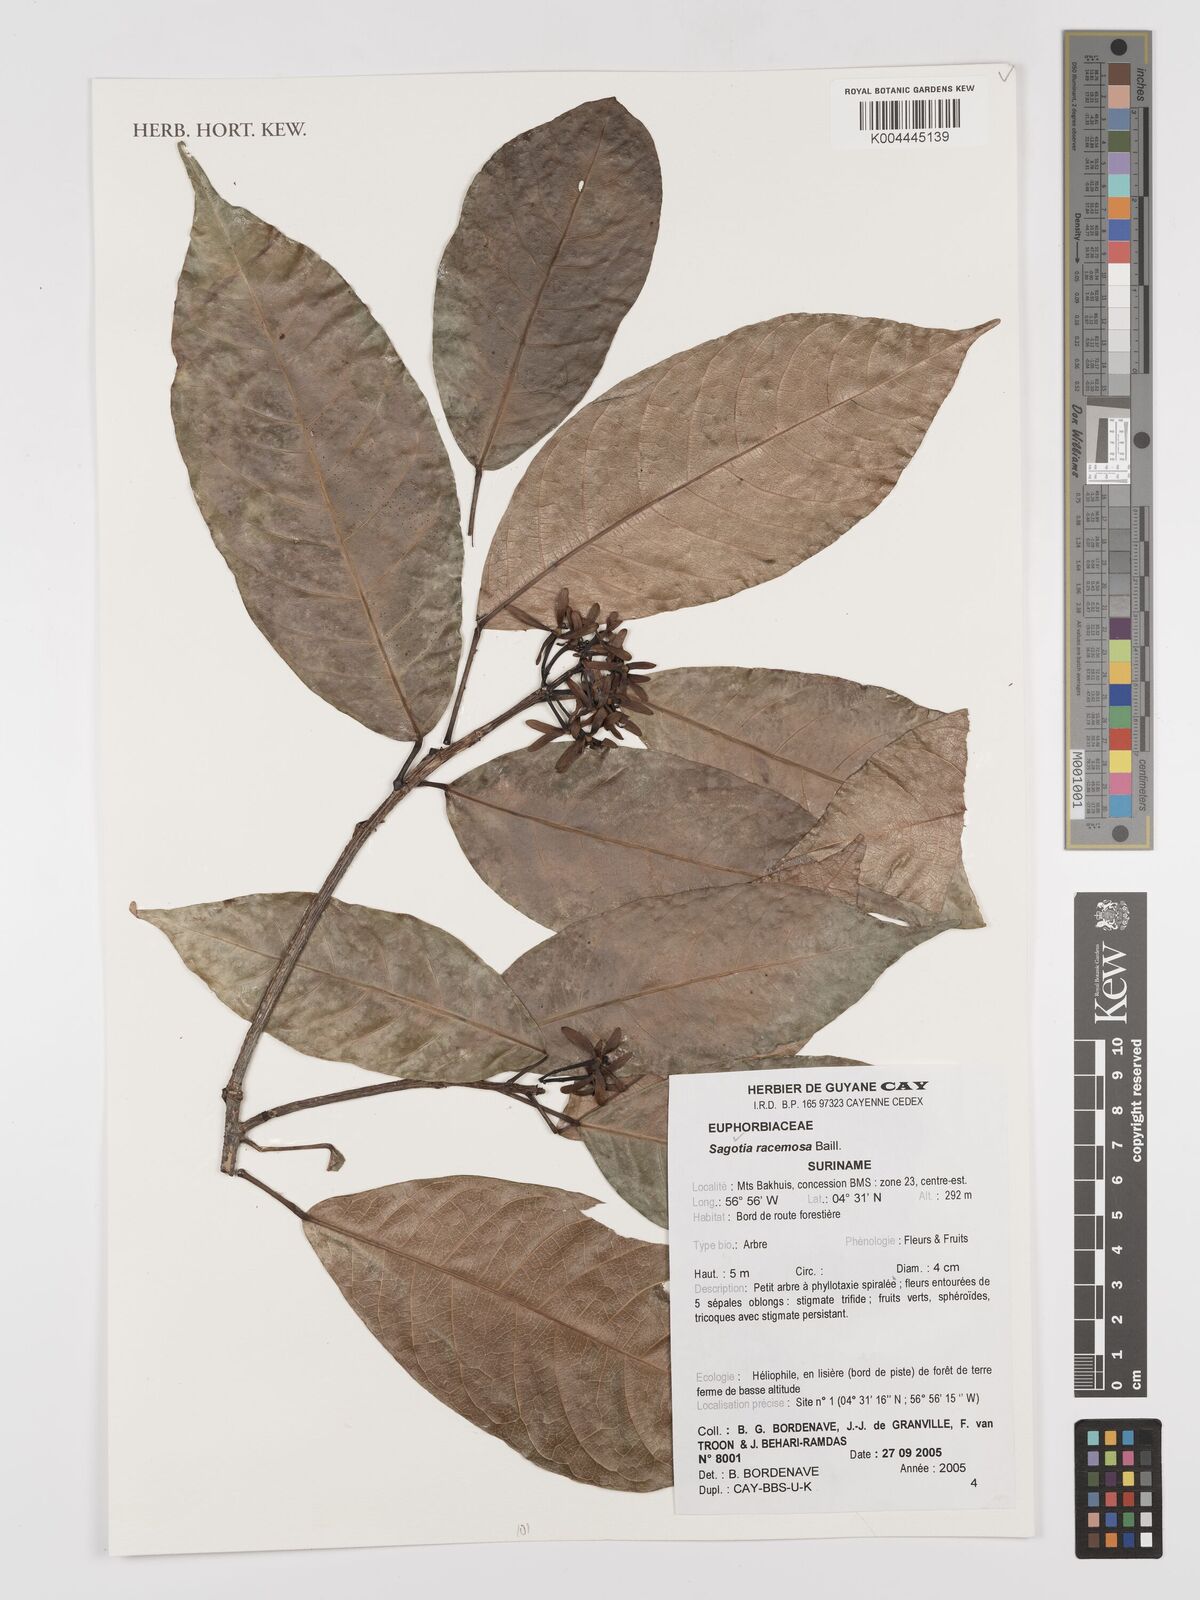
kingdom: Plantae
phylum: Tracheophyta
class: Magnoliopsida
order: Malpighiales
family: Euphorbiaceae
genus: Sagotia
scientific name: Sagotia racemosa
